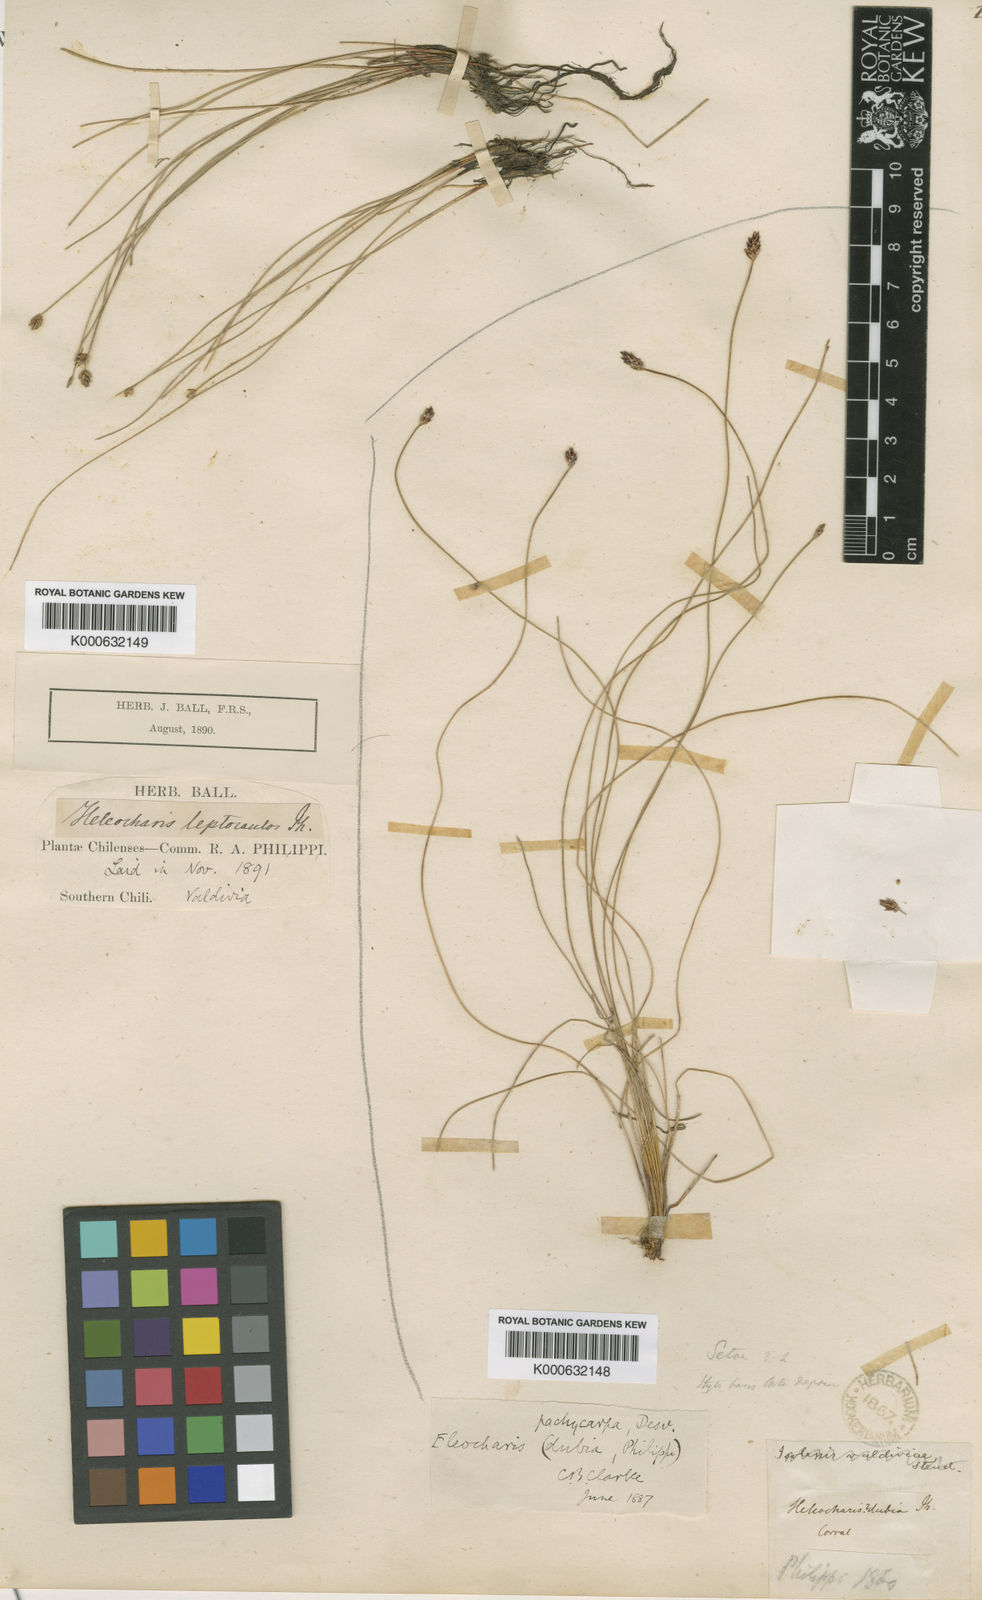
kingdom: Plantae
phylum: Tracheophyta
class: Liliopsida
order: Poales
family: Cyperaceae
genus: Eleocharis
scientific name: Eleocharis
